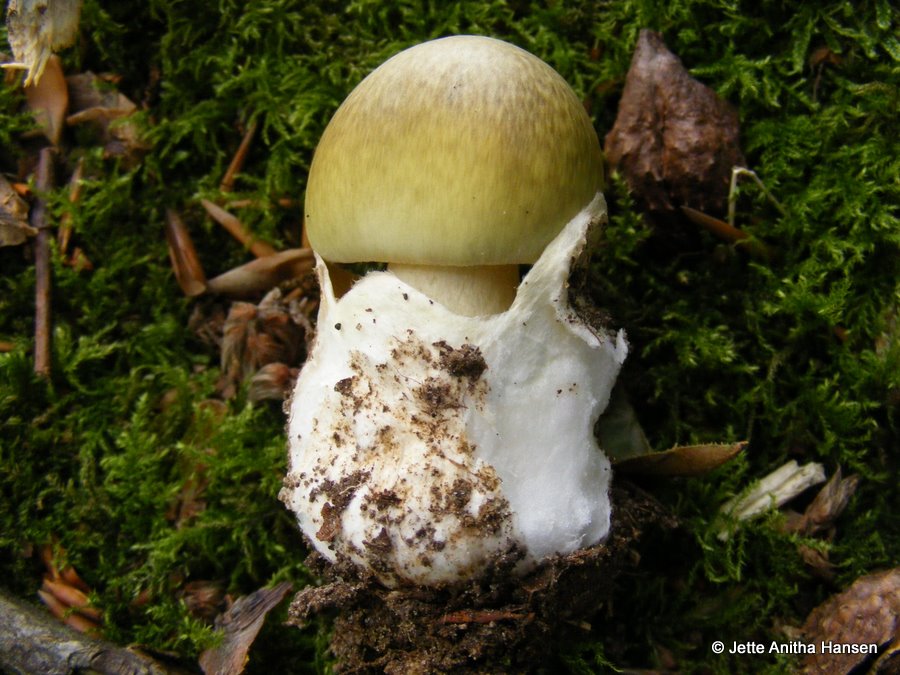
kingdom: Fungi
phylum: Basidiomycota
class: Agaricomycetes
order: Agaricales
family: Amanitaceae
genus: Amanita
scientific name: Amanita phalloides
